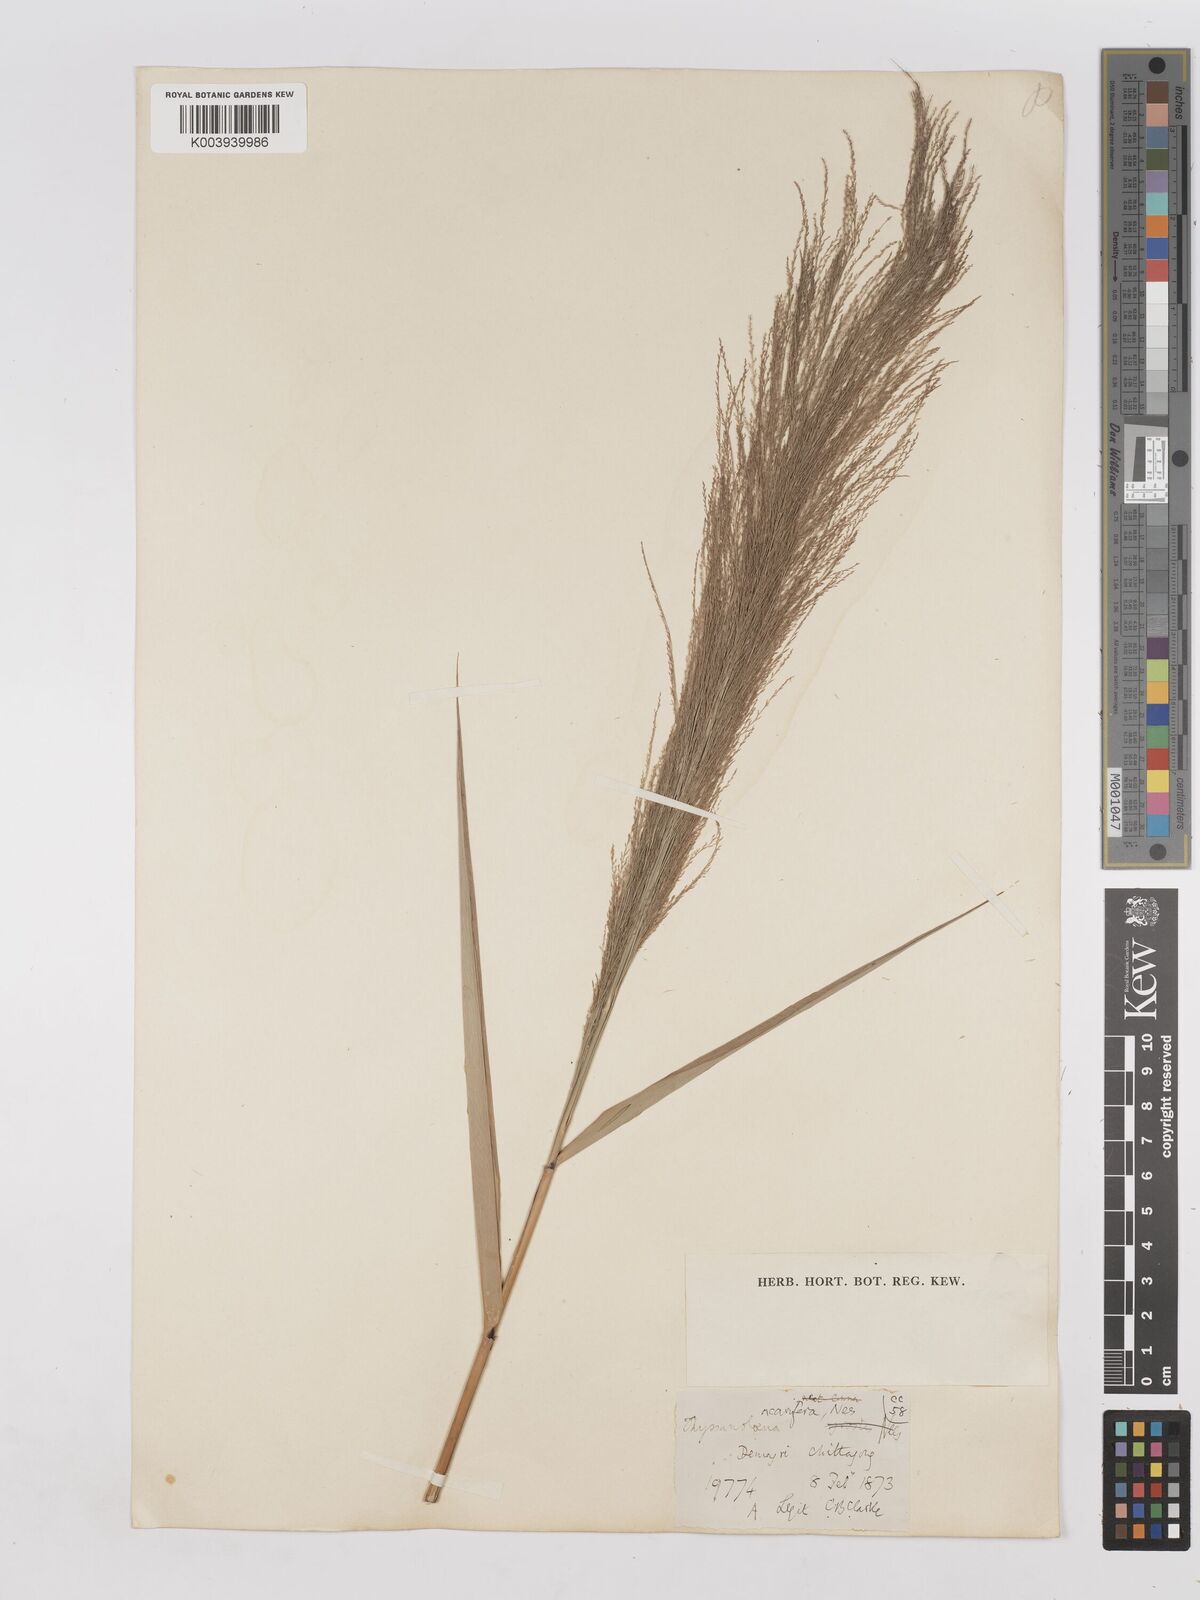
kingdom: Plantae
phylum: Tracheophyta
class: Liliopsida
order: Poales
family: Poaceae
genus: Thysanolaena
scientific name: Thysanolaena latifolia
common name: Tiger grass
